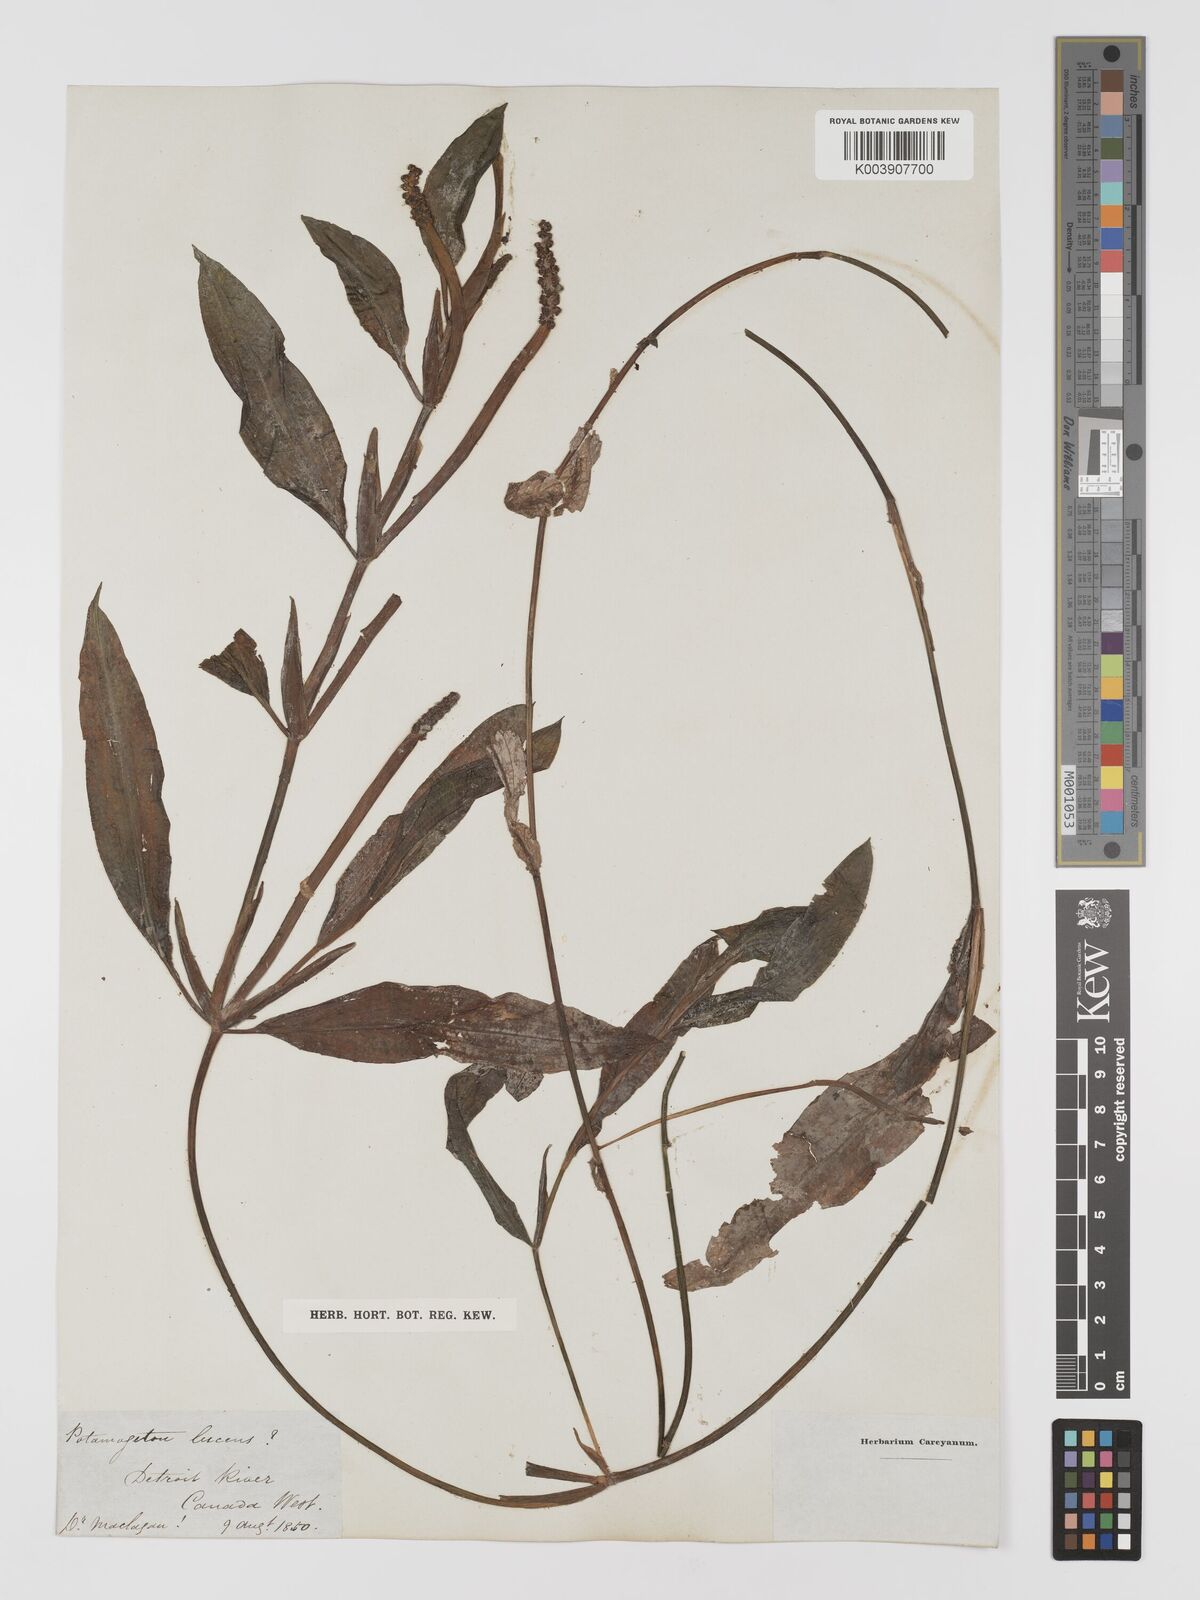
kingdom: Plantae
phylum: Tracheophyta
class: Liliopsida
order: Alismatales
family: Potamogetonaceae
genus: Potamogeton
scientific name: Potamogeton lucens
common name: Shining pondweed
